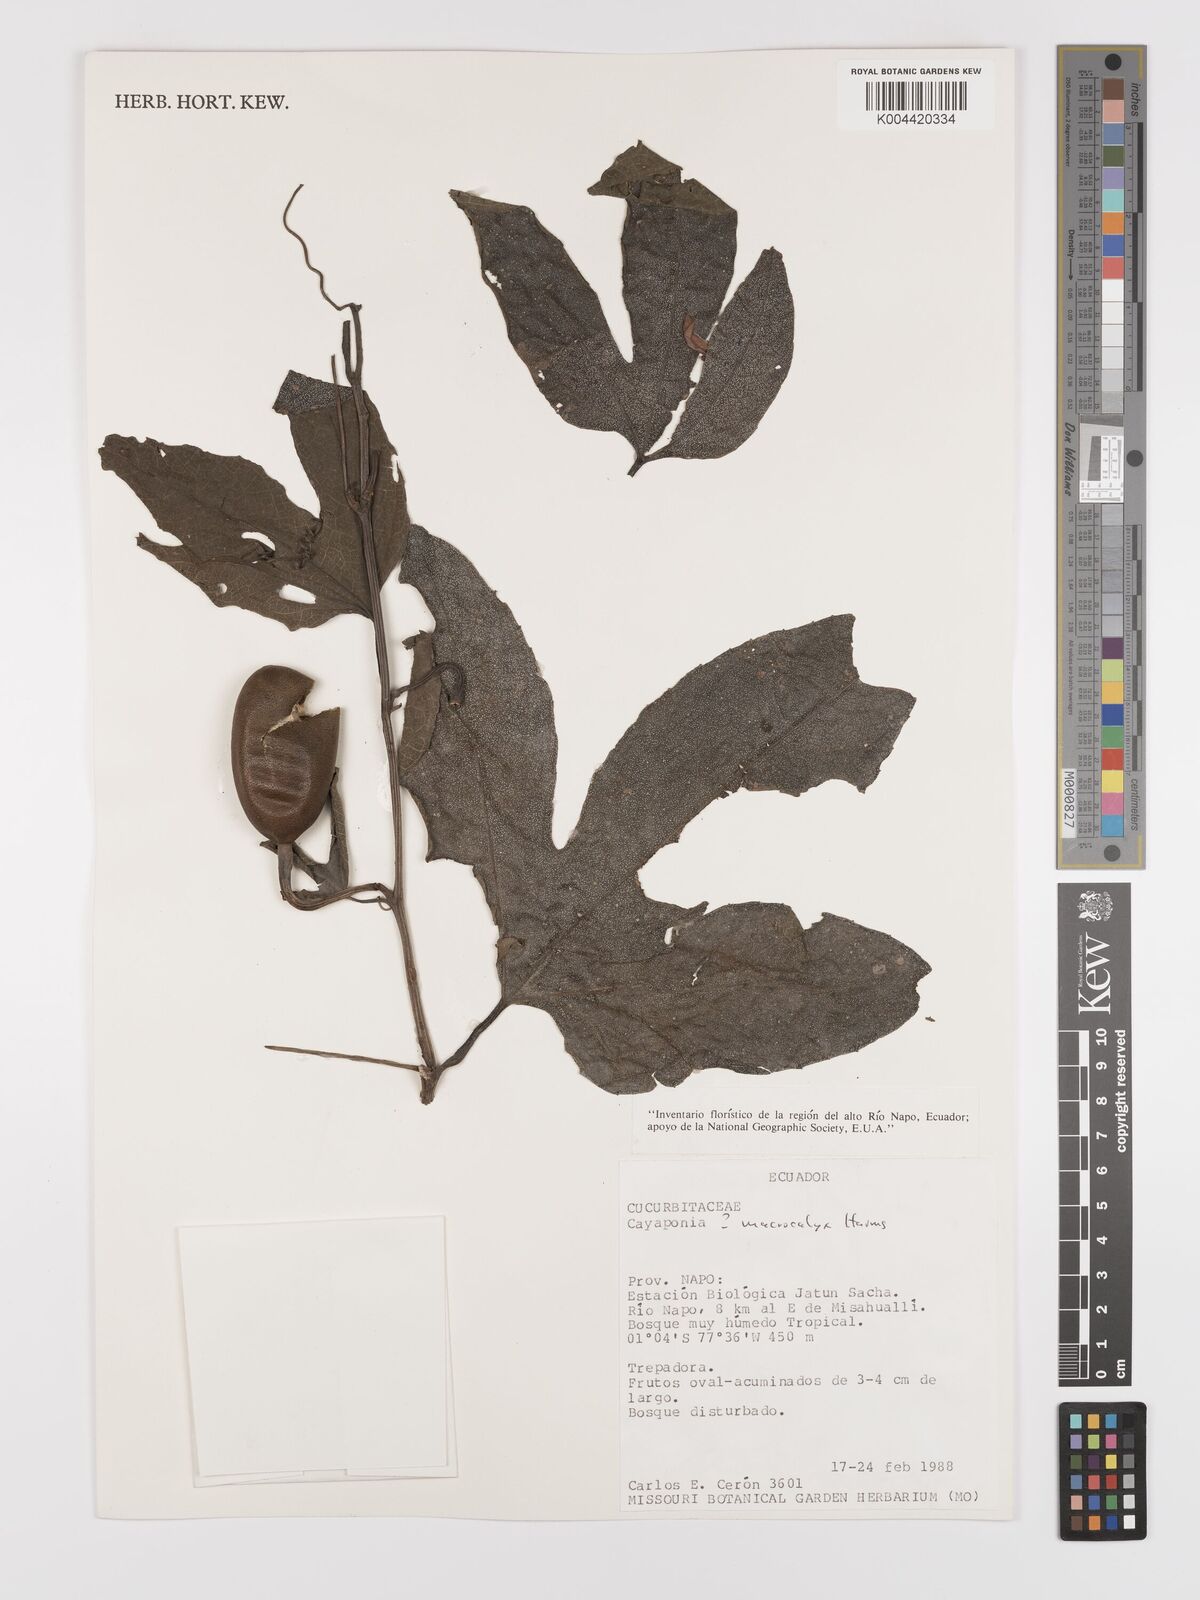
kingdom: Plantae
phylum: Tracheophyta
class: Magnoliopsida
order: Cucurbitales
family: Cucurbitaceae
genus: Cayaponia
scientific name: Cayaponia macrocalyx
